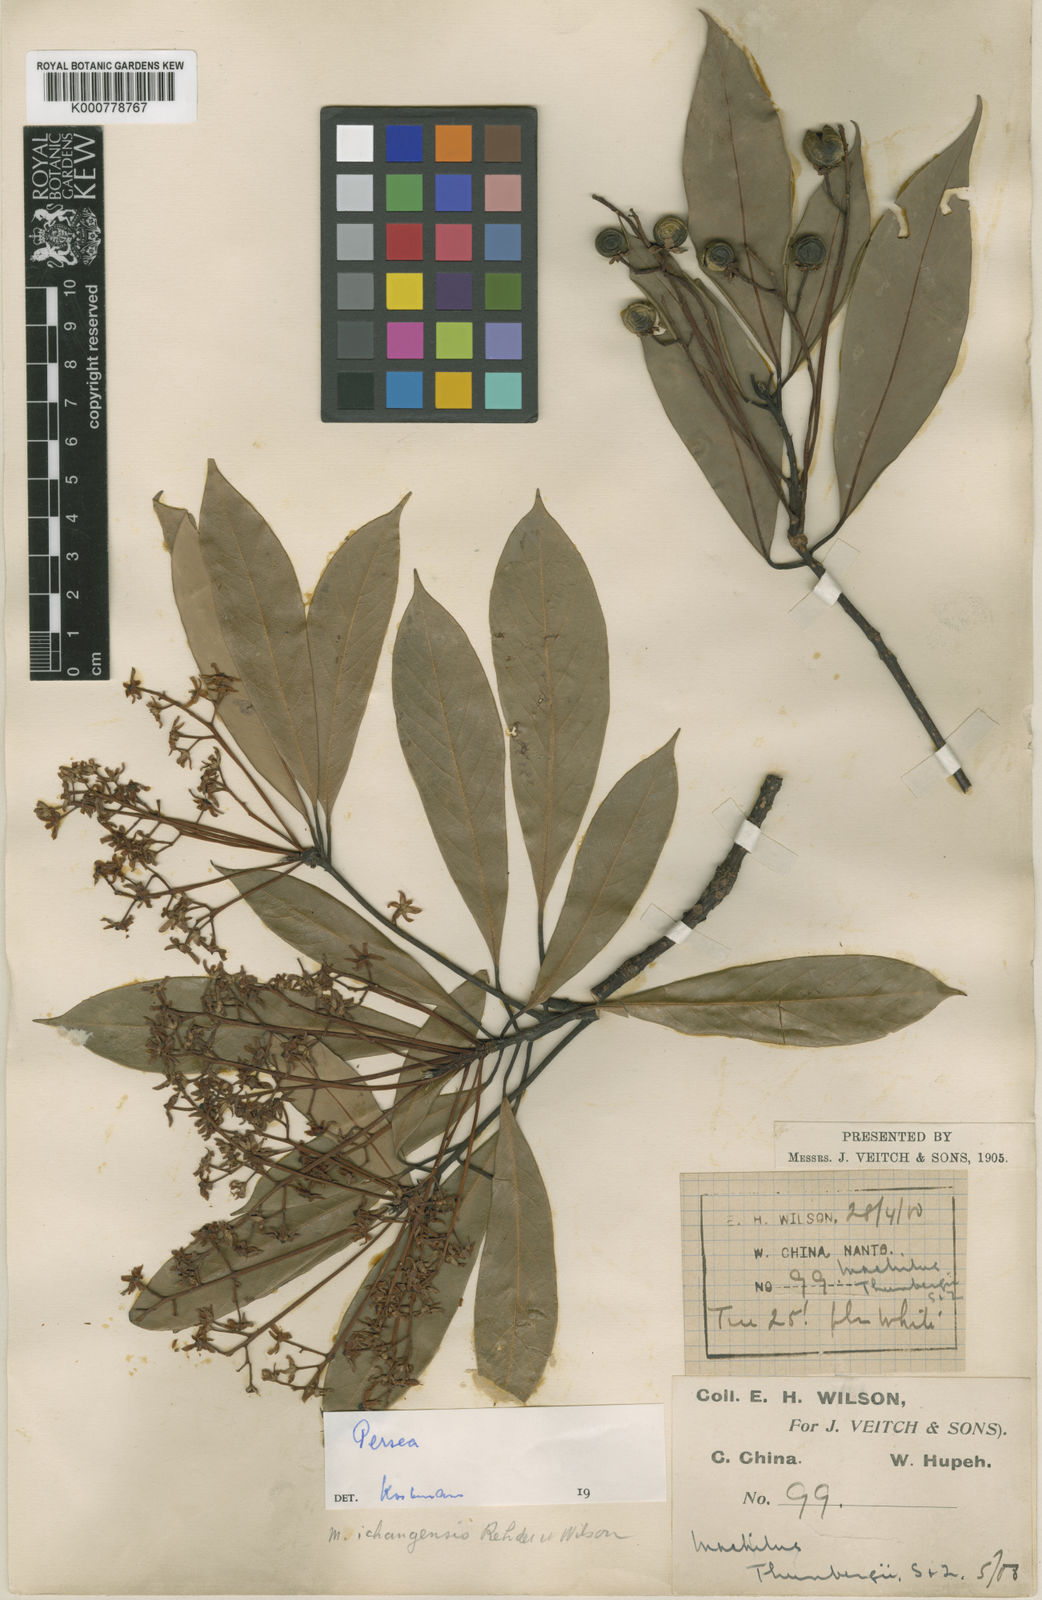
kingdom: Plantae
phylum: Tracheophyta
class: Magnoliopsida
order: Laurales
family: Lauraceae
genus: Machilus
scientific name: Machilus ichangensis
